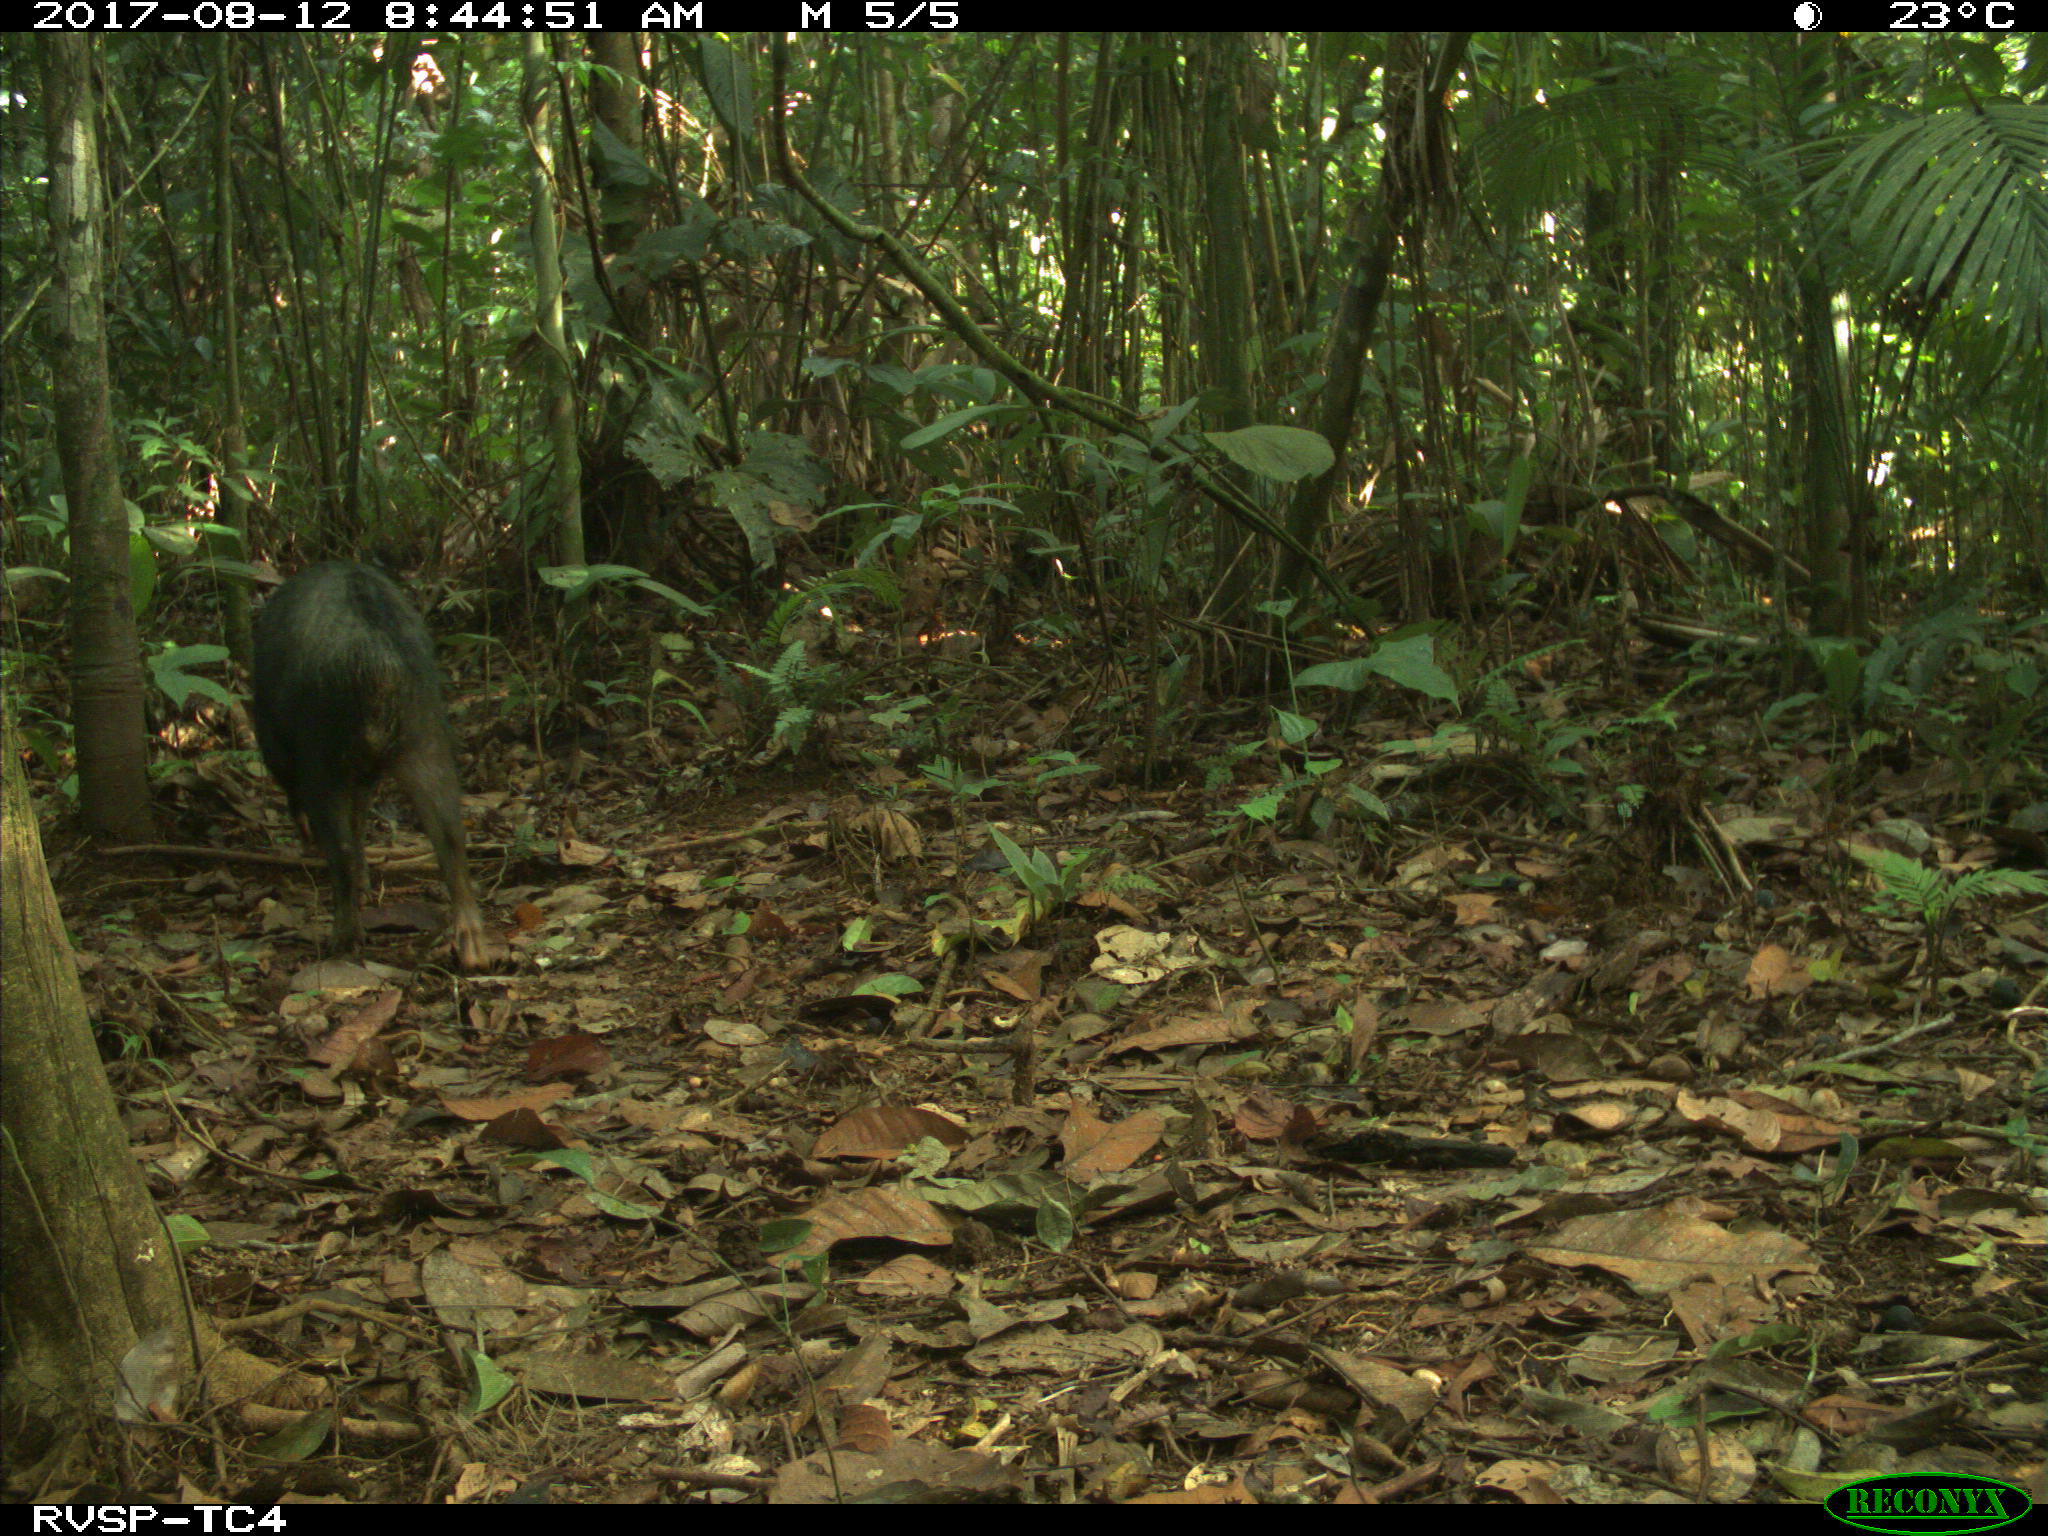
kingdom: Animalia
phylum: Chordata
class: Mammalia
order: Artiodactyla
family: Tayassuidae
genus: Tayassu
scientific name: Tayassu pecari
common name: White-lipped peccary
